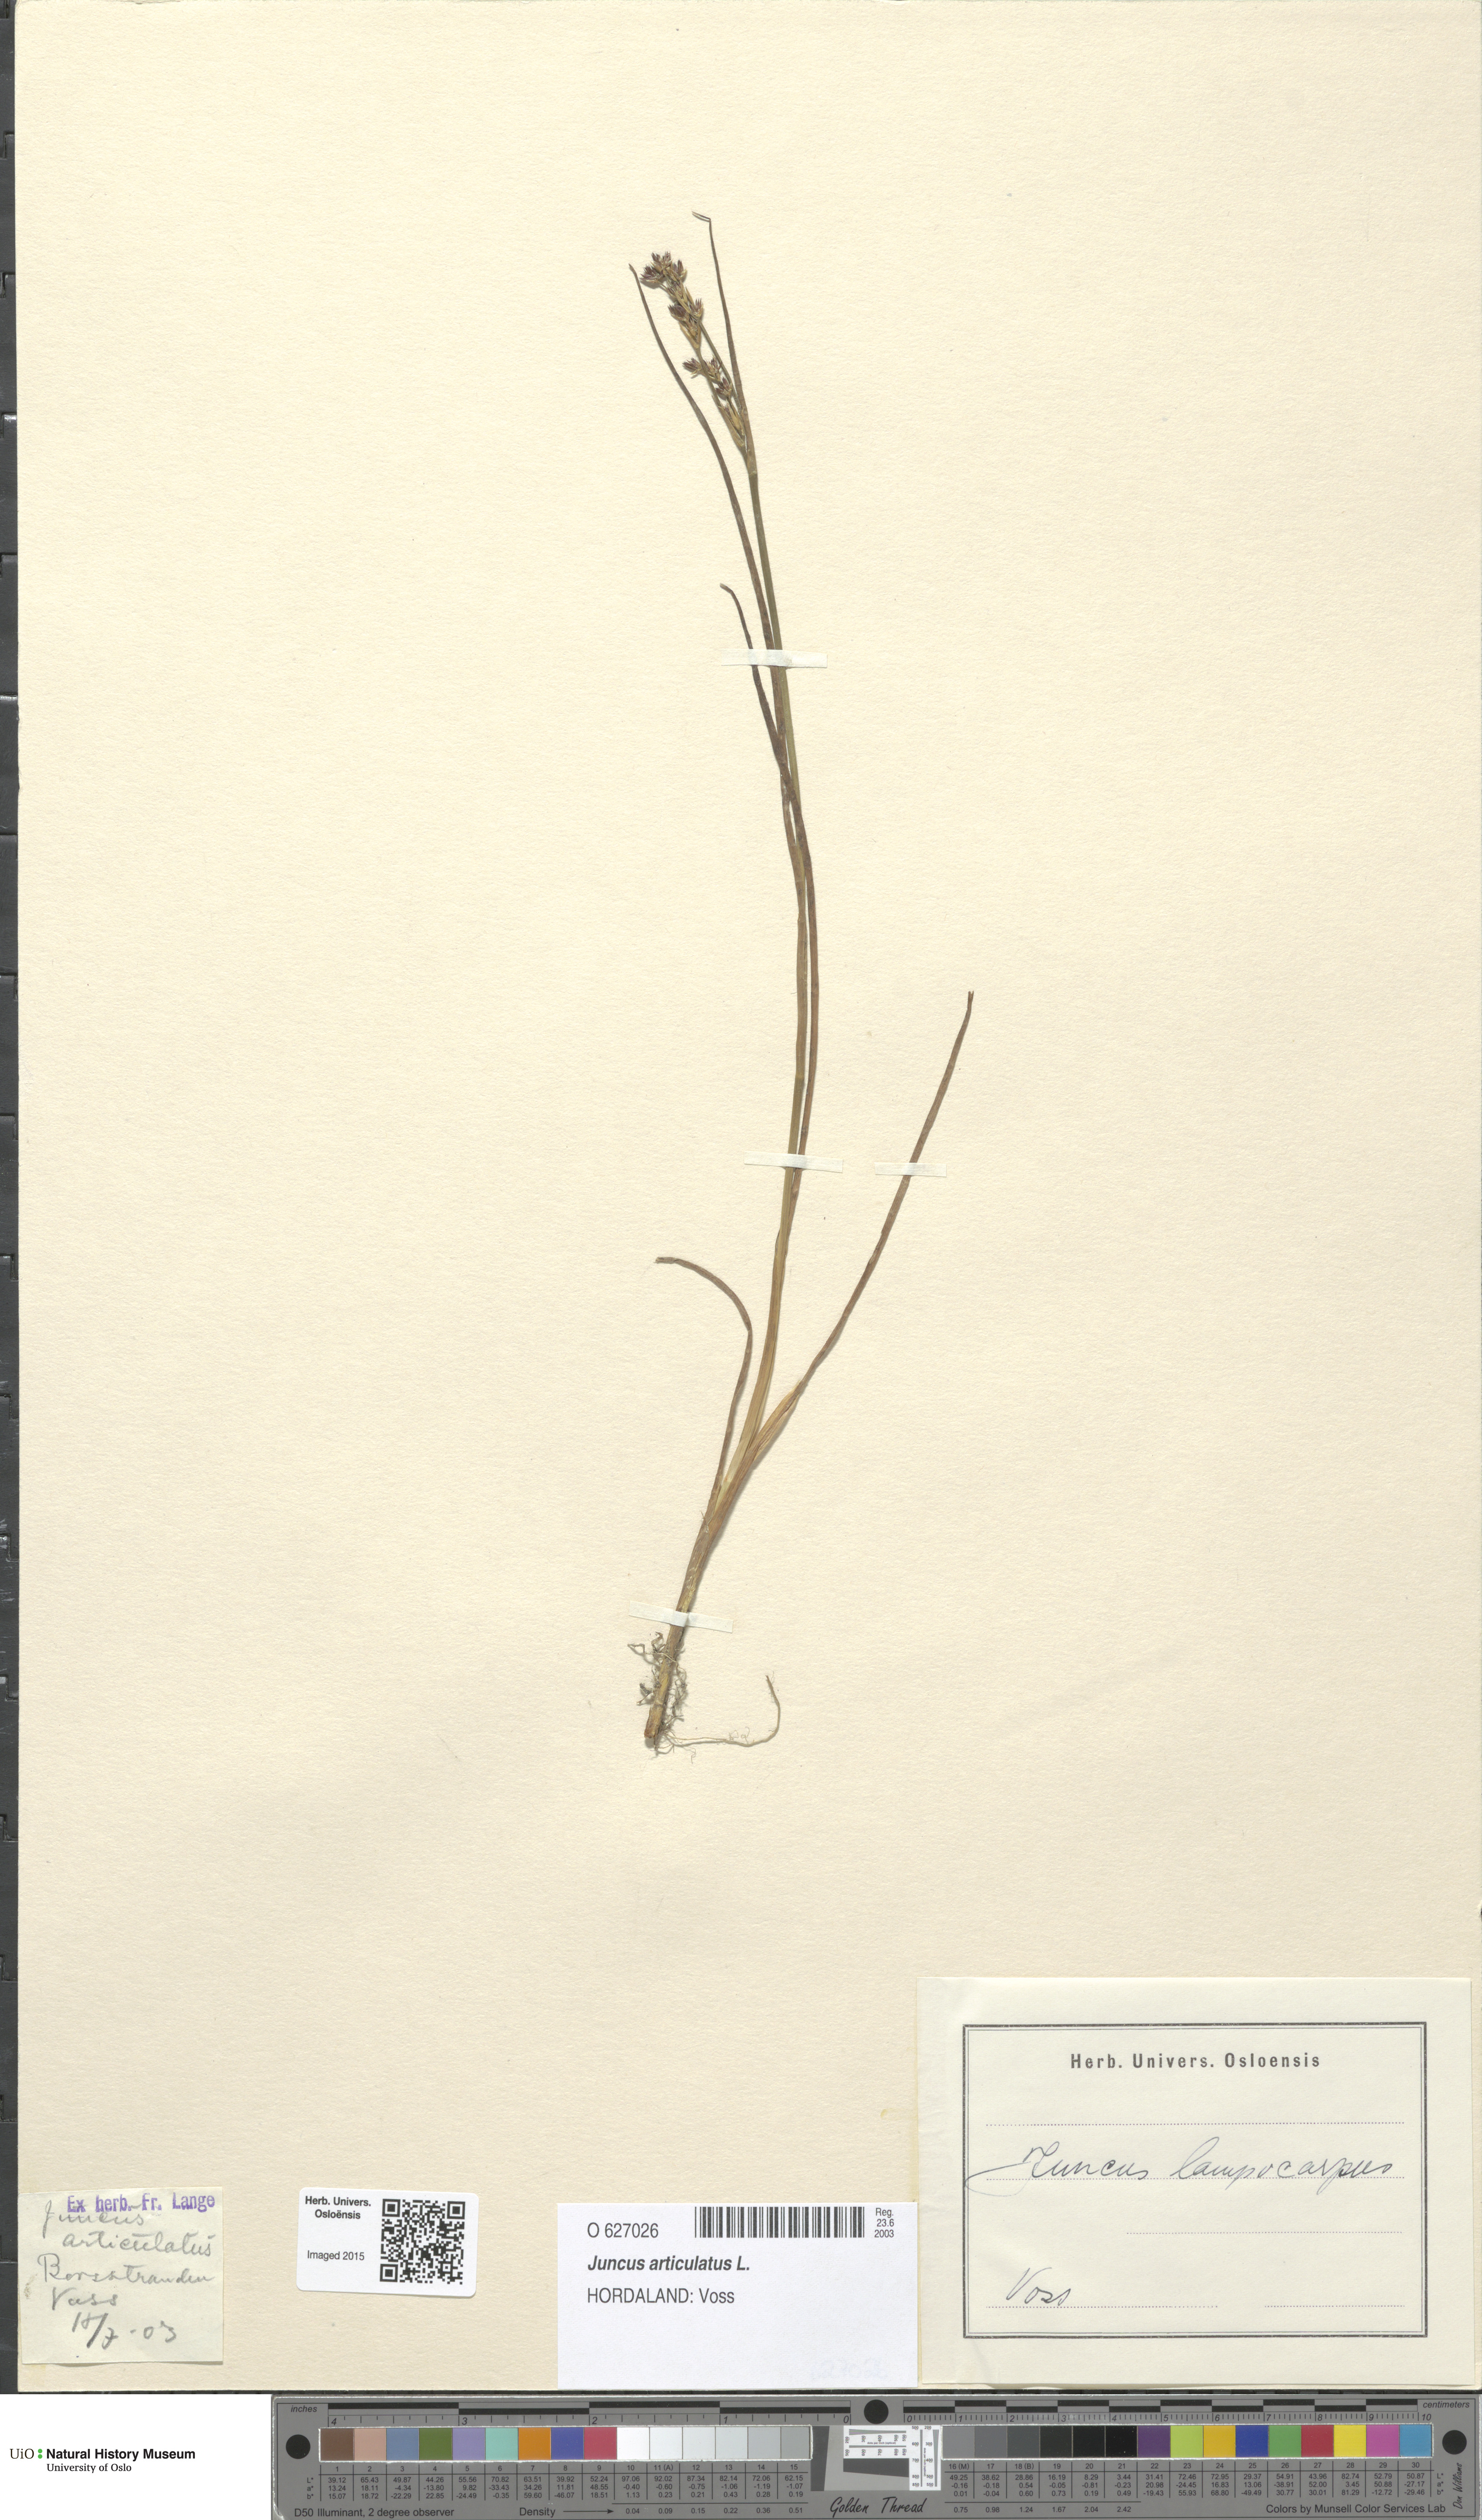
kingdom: Plantae
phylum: Tracheophyta
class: Liliopsida
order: Poales
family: Juncaceae
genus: Juncus
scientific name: Juncus articulatus
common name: Jointed rush
